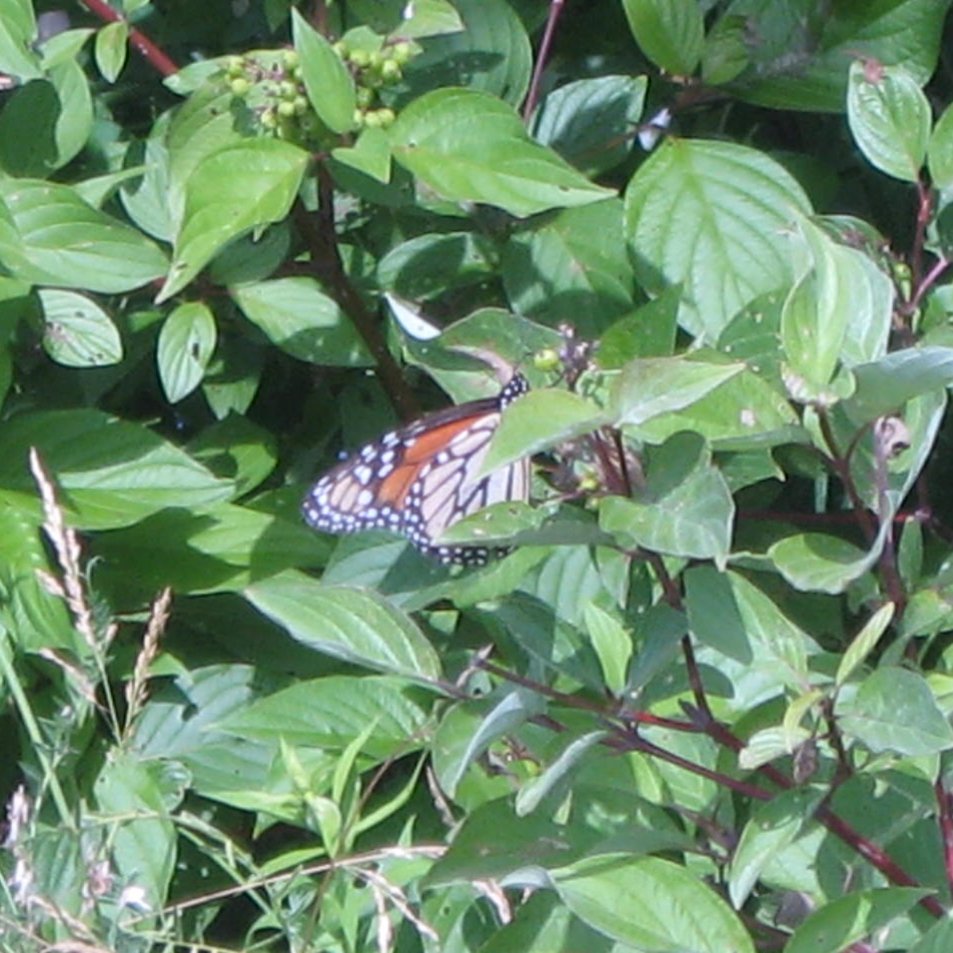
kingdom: Animalia
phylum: Arthropoda
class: Insecta
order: Lepidoptera
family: Nymphalidae
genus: Danaus
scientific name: Danaus plexippus
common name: Monarch
